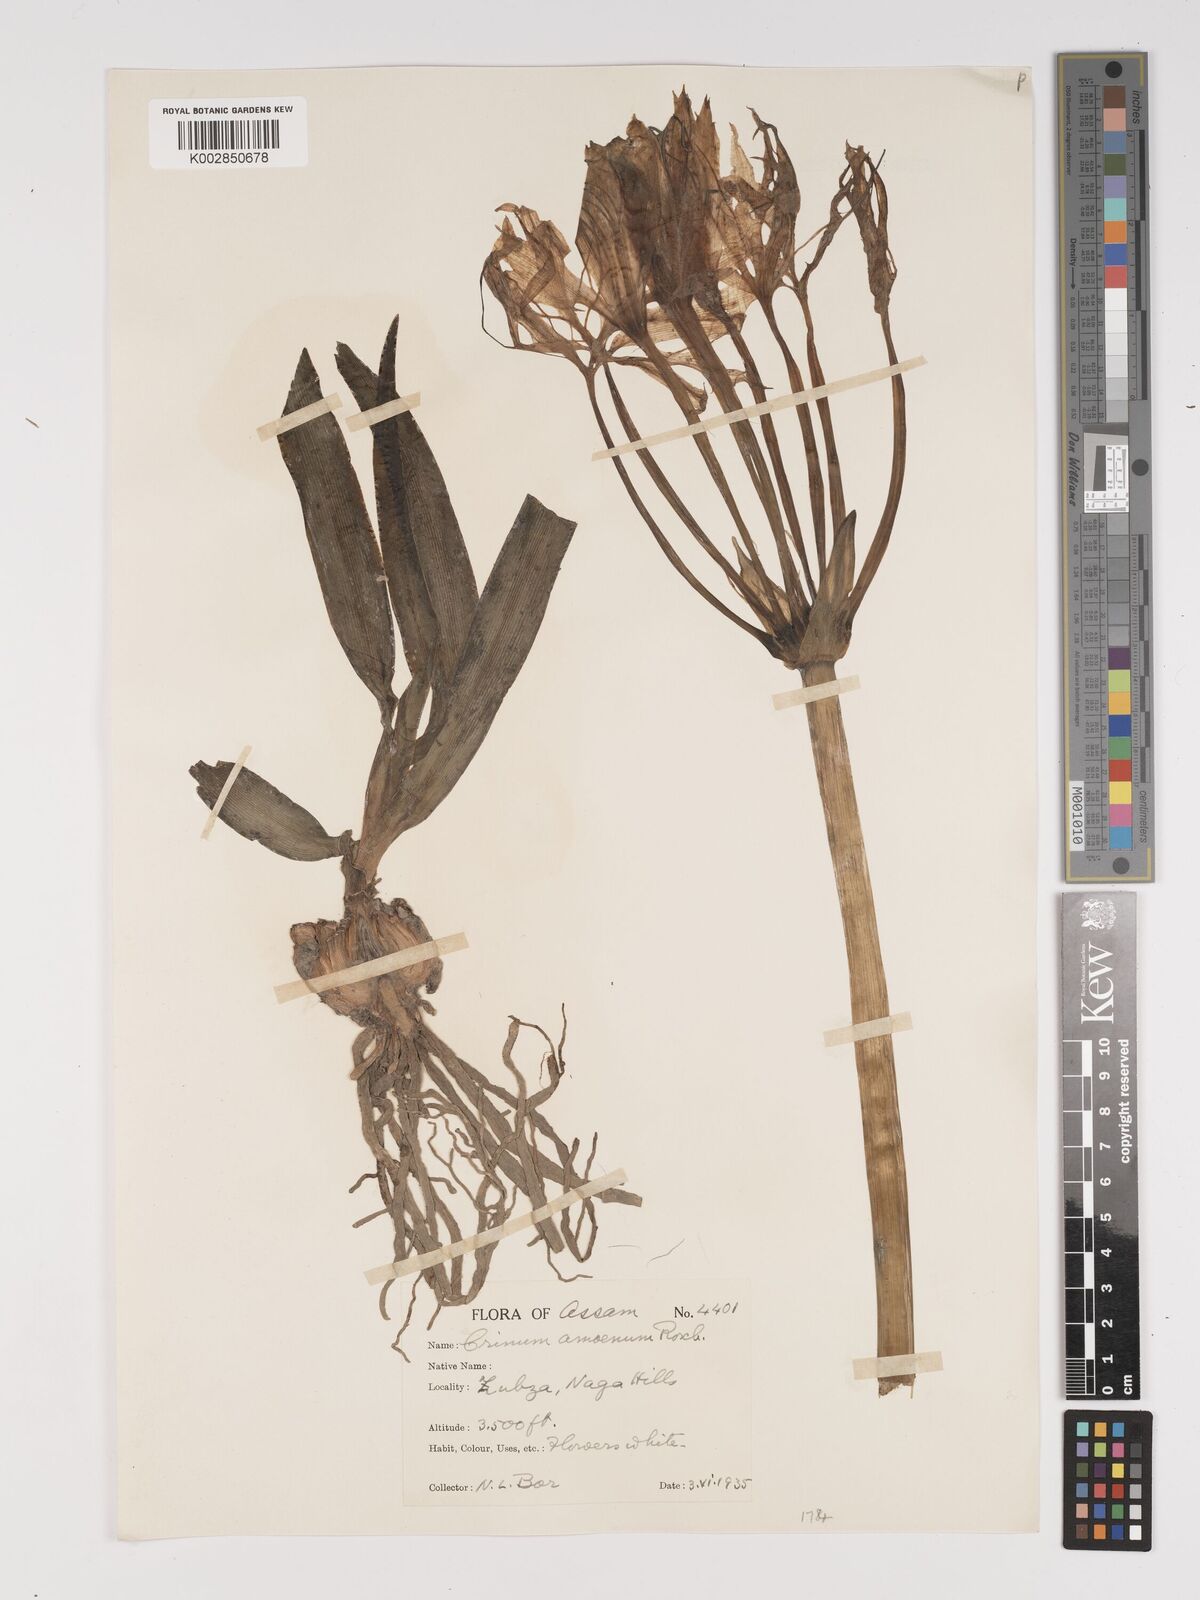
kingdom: Plantae
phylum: Tracheophyta
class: Liliopsida
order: Asparagales
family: Amaryllidaceae
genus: Crinum
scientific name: Crinum amoenum
